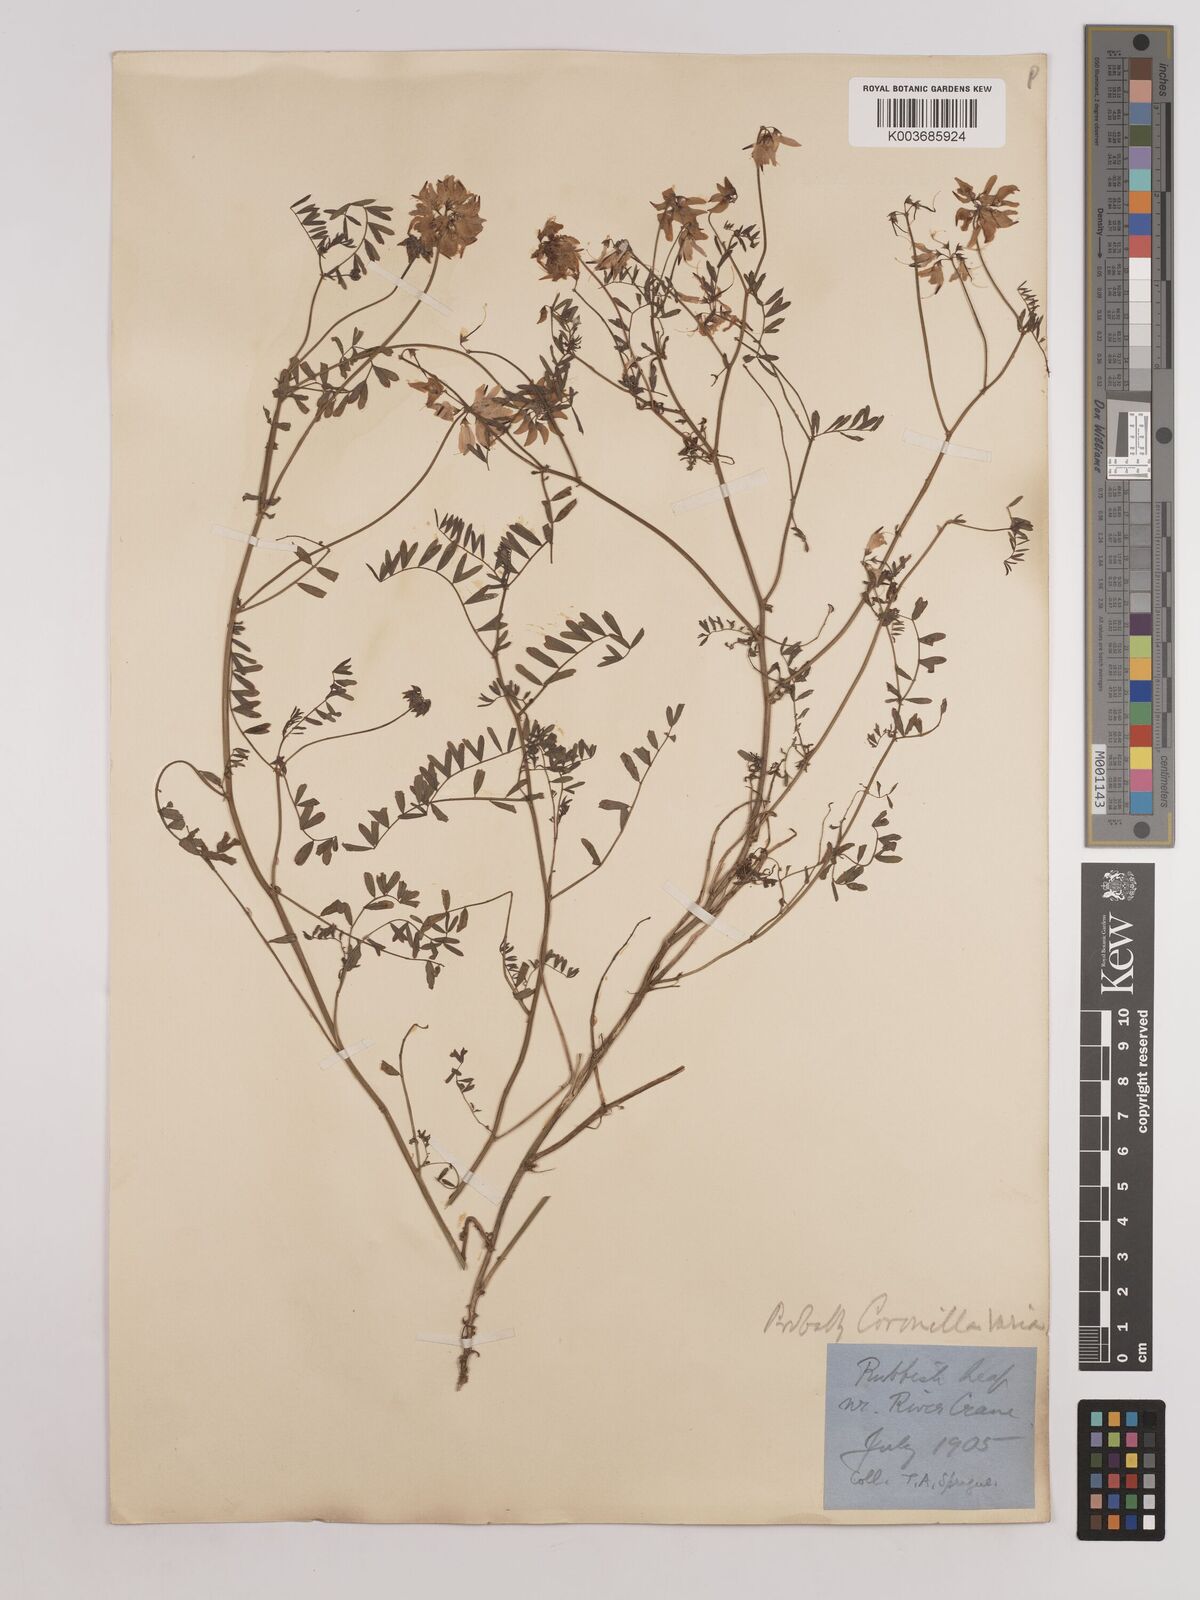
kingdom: Plantae
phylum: Tracheophyta
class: Magnoliopsida
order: Fabales
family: Fabaceae
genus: Coronilla
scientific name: Coronilla varia
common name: Crownvetch
